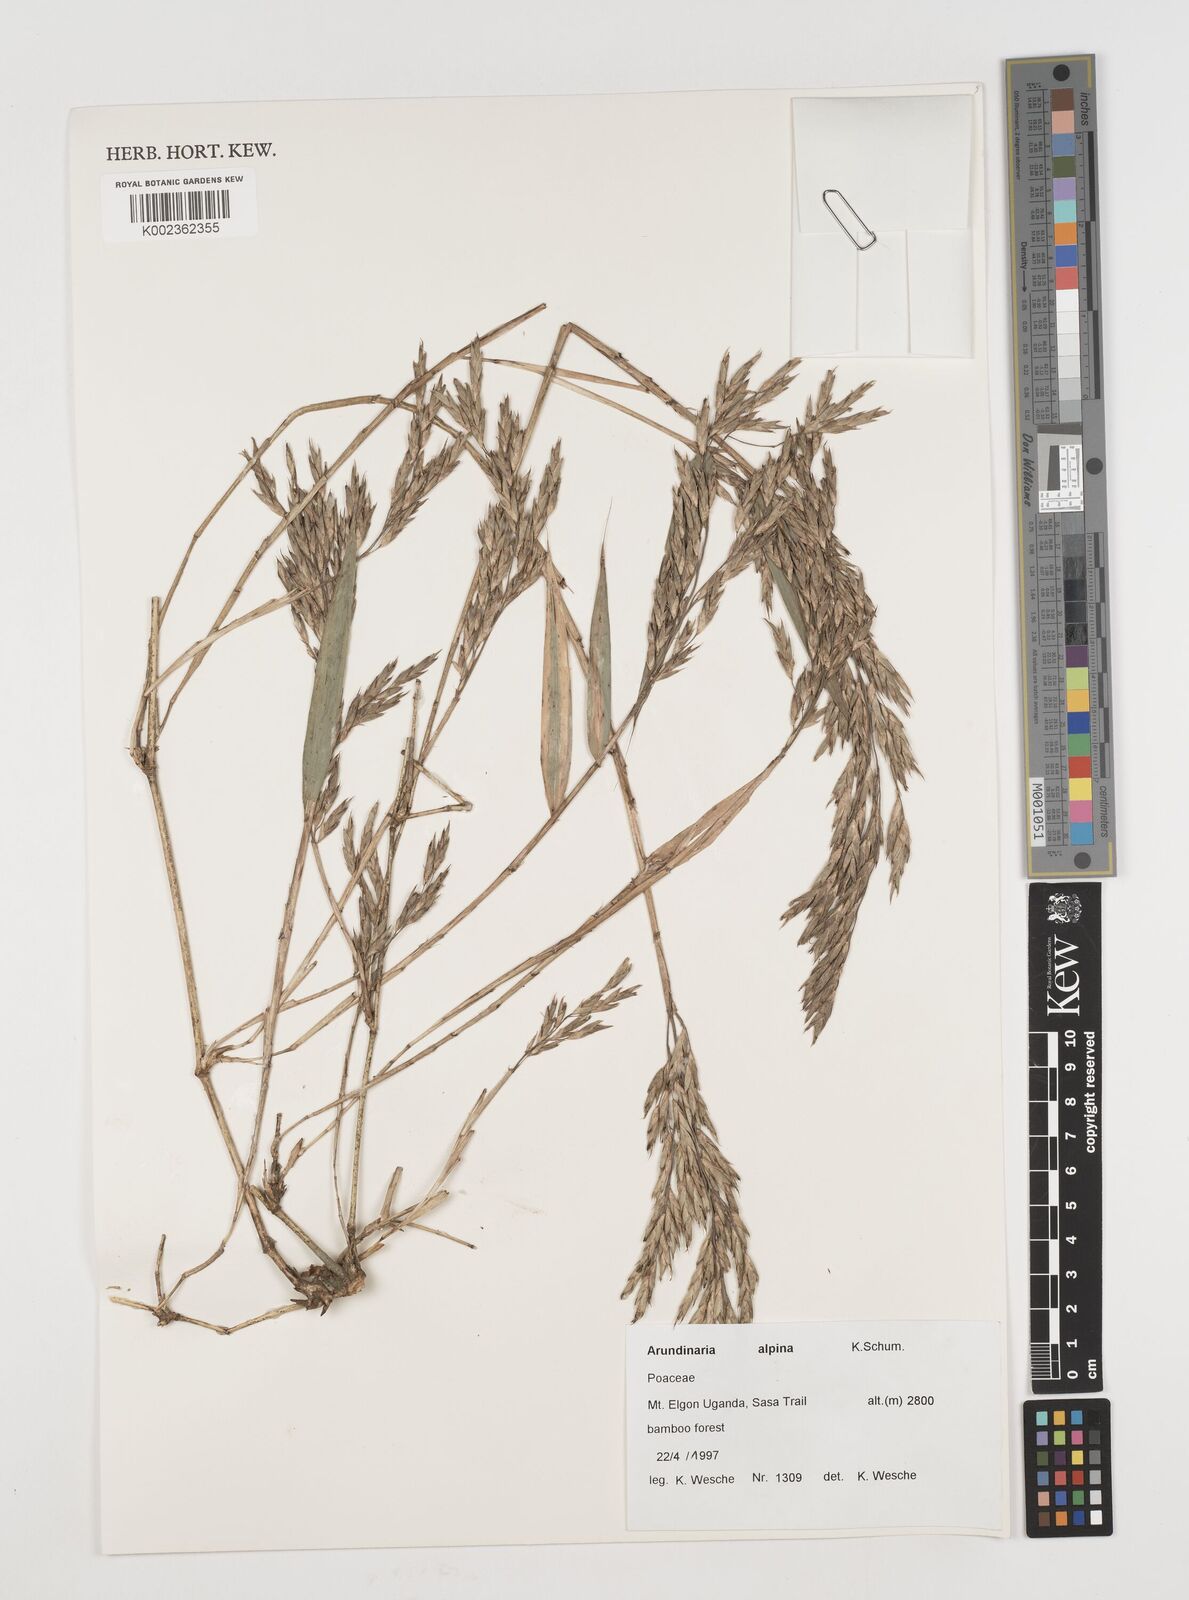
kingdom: Plantae
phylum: Tracheophyta
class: Liliopsida
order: Poales
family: Poaceae
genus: Oldeania
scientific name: Oldeania alpina
